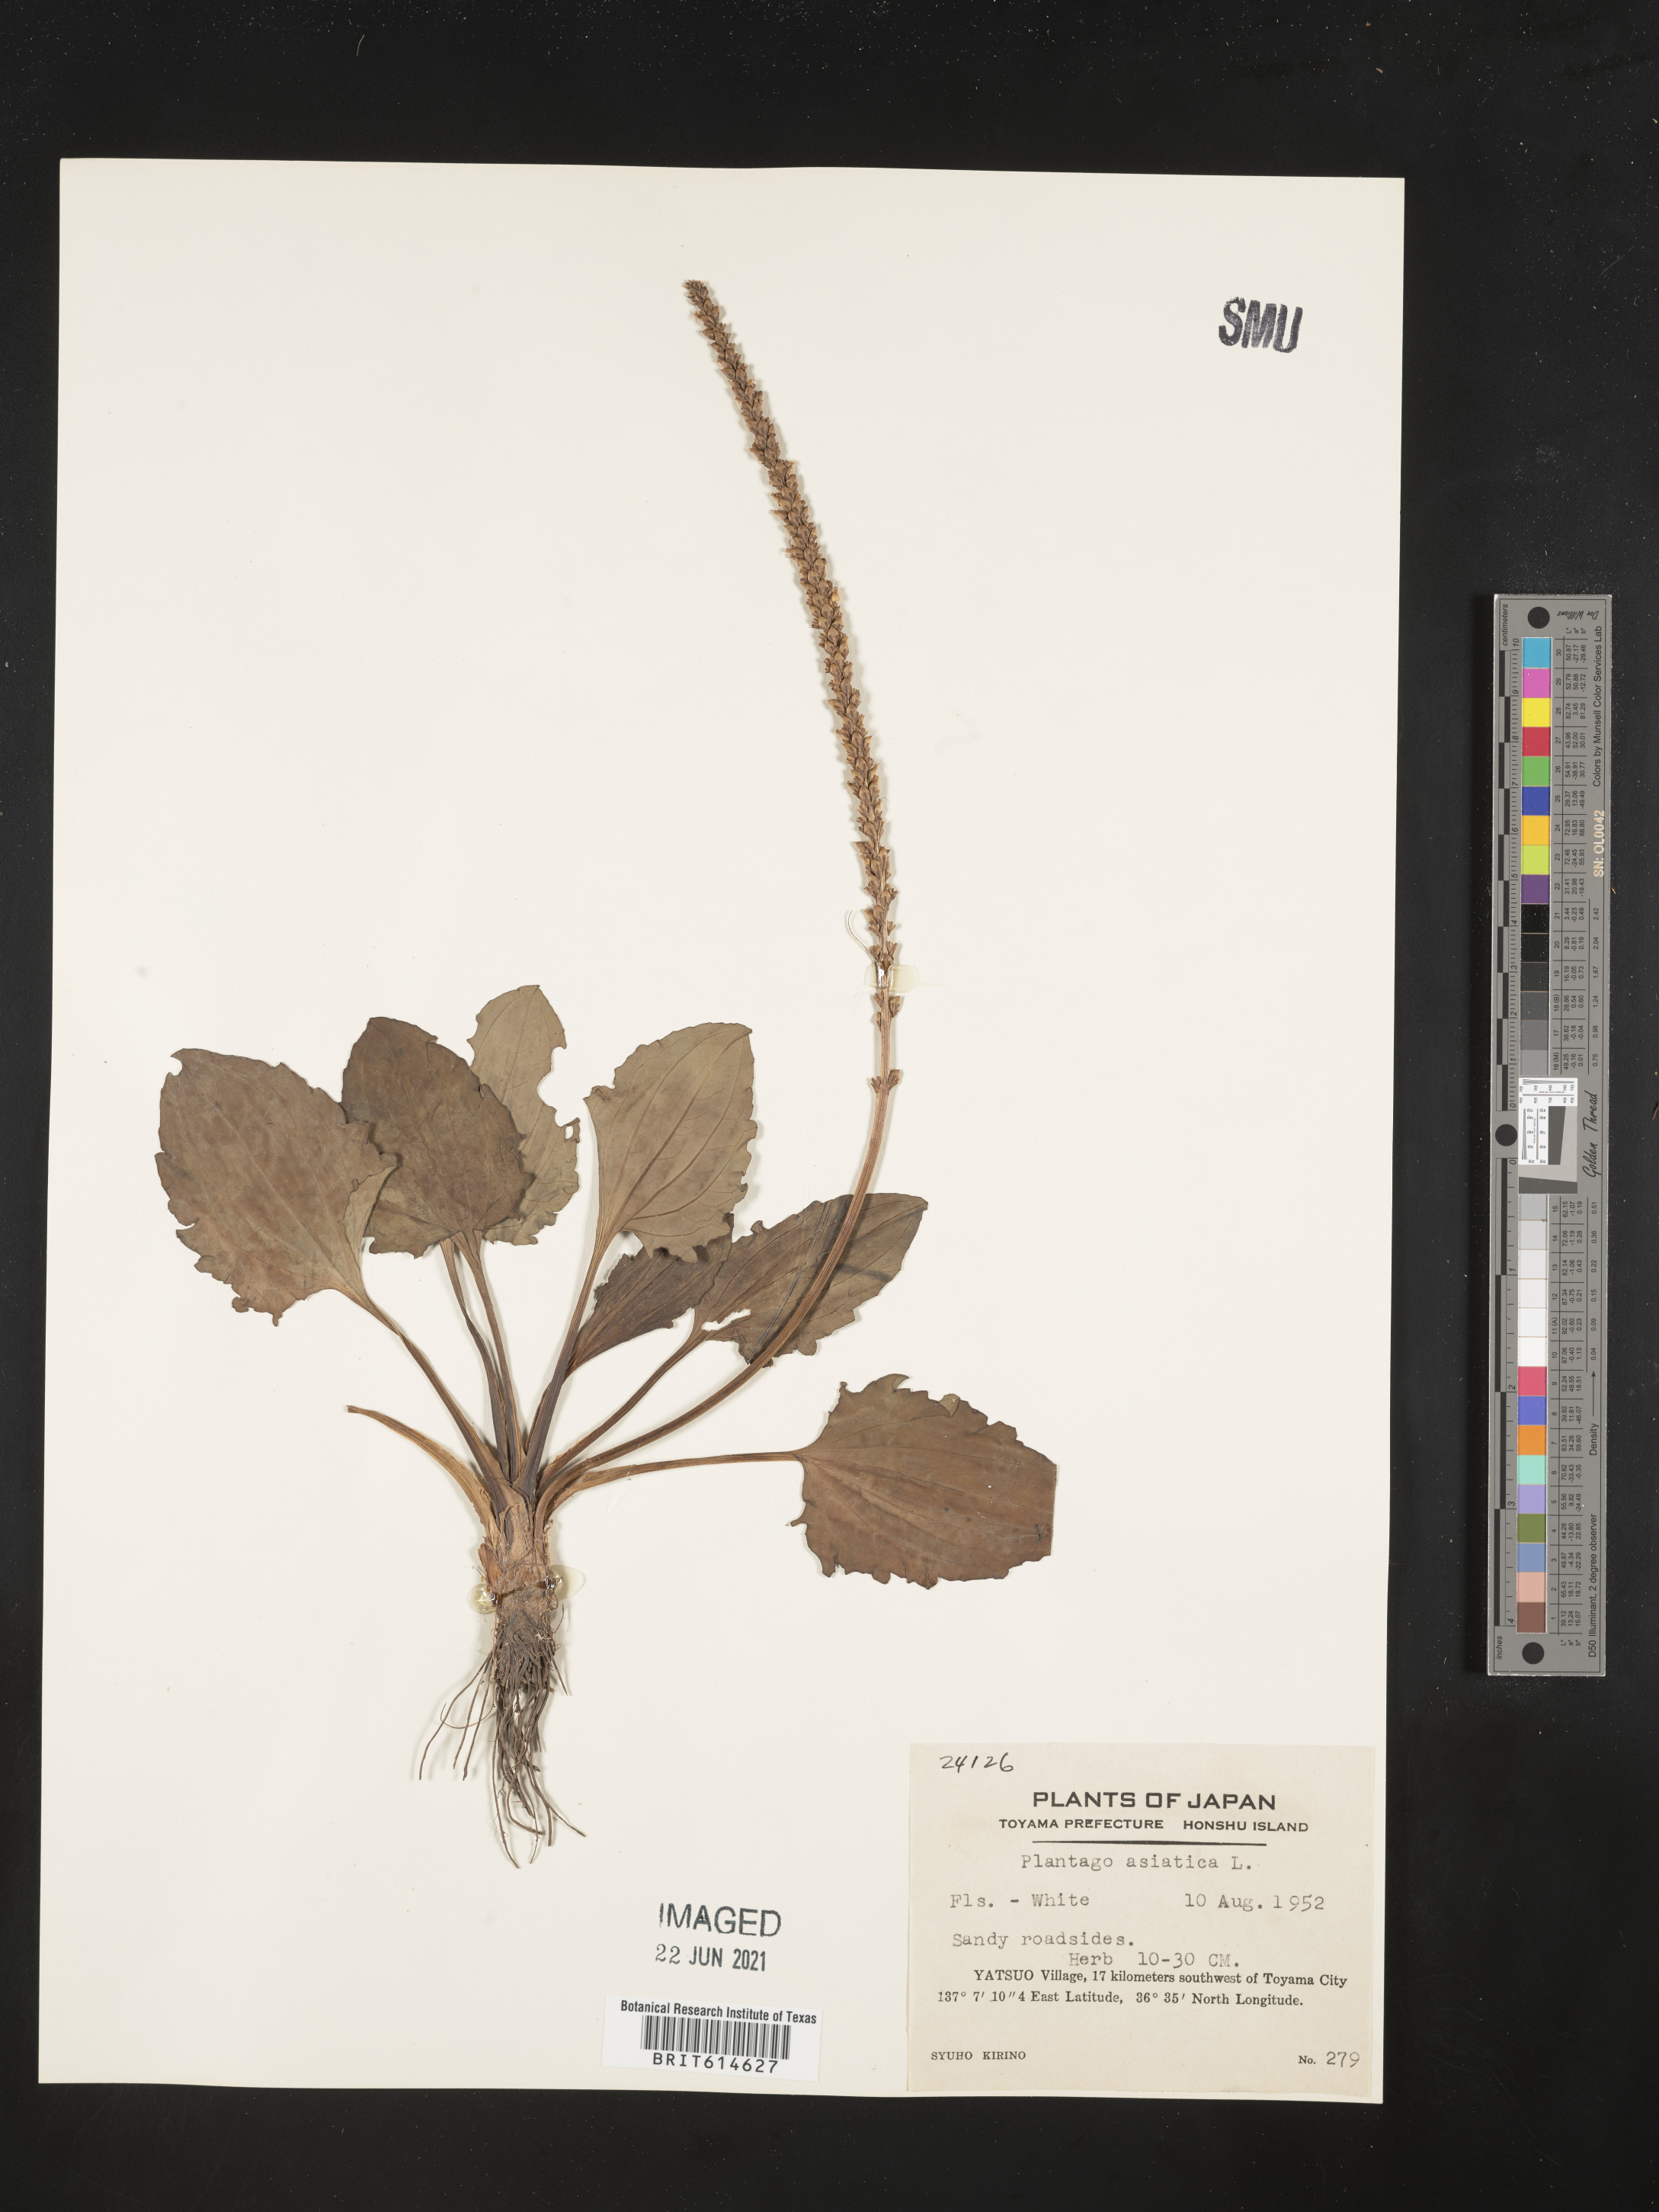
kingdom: Plantae
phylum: Tracheophyta
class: Magnoliopsida
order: Lamiales
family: Plantaginaceae
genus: Plantago
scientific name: Plantago asiatica
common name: Psyllium
